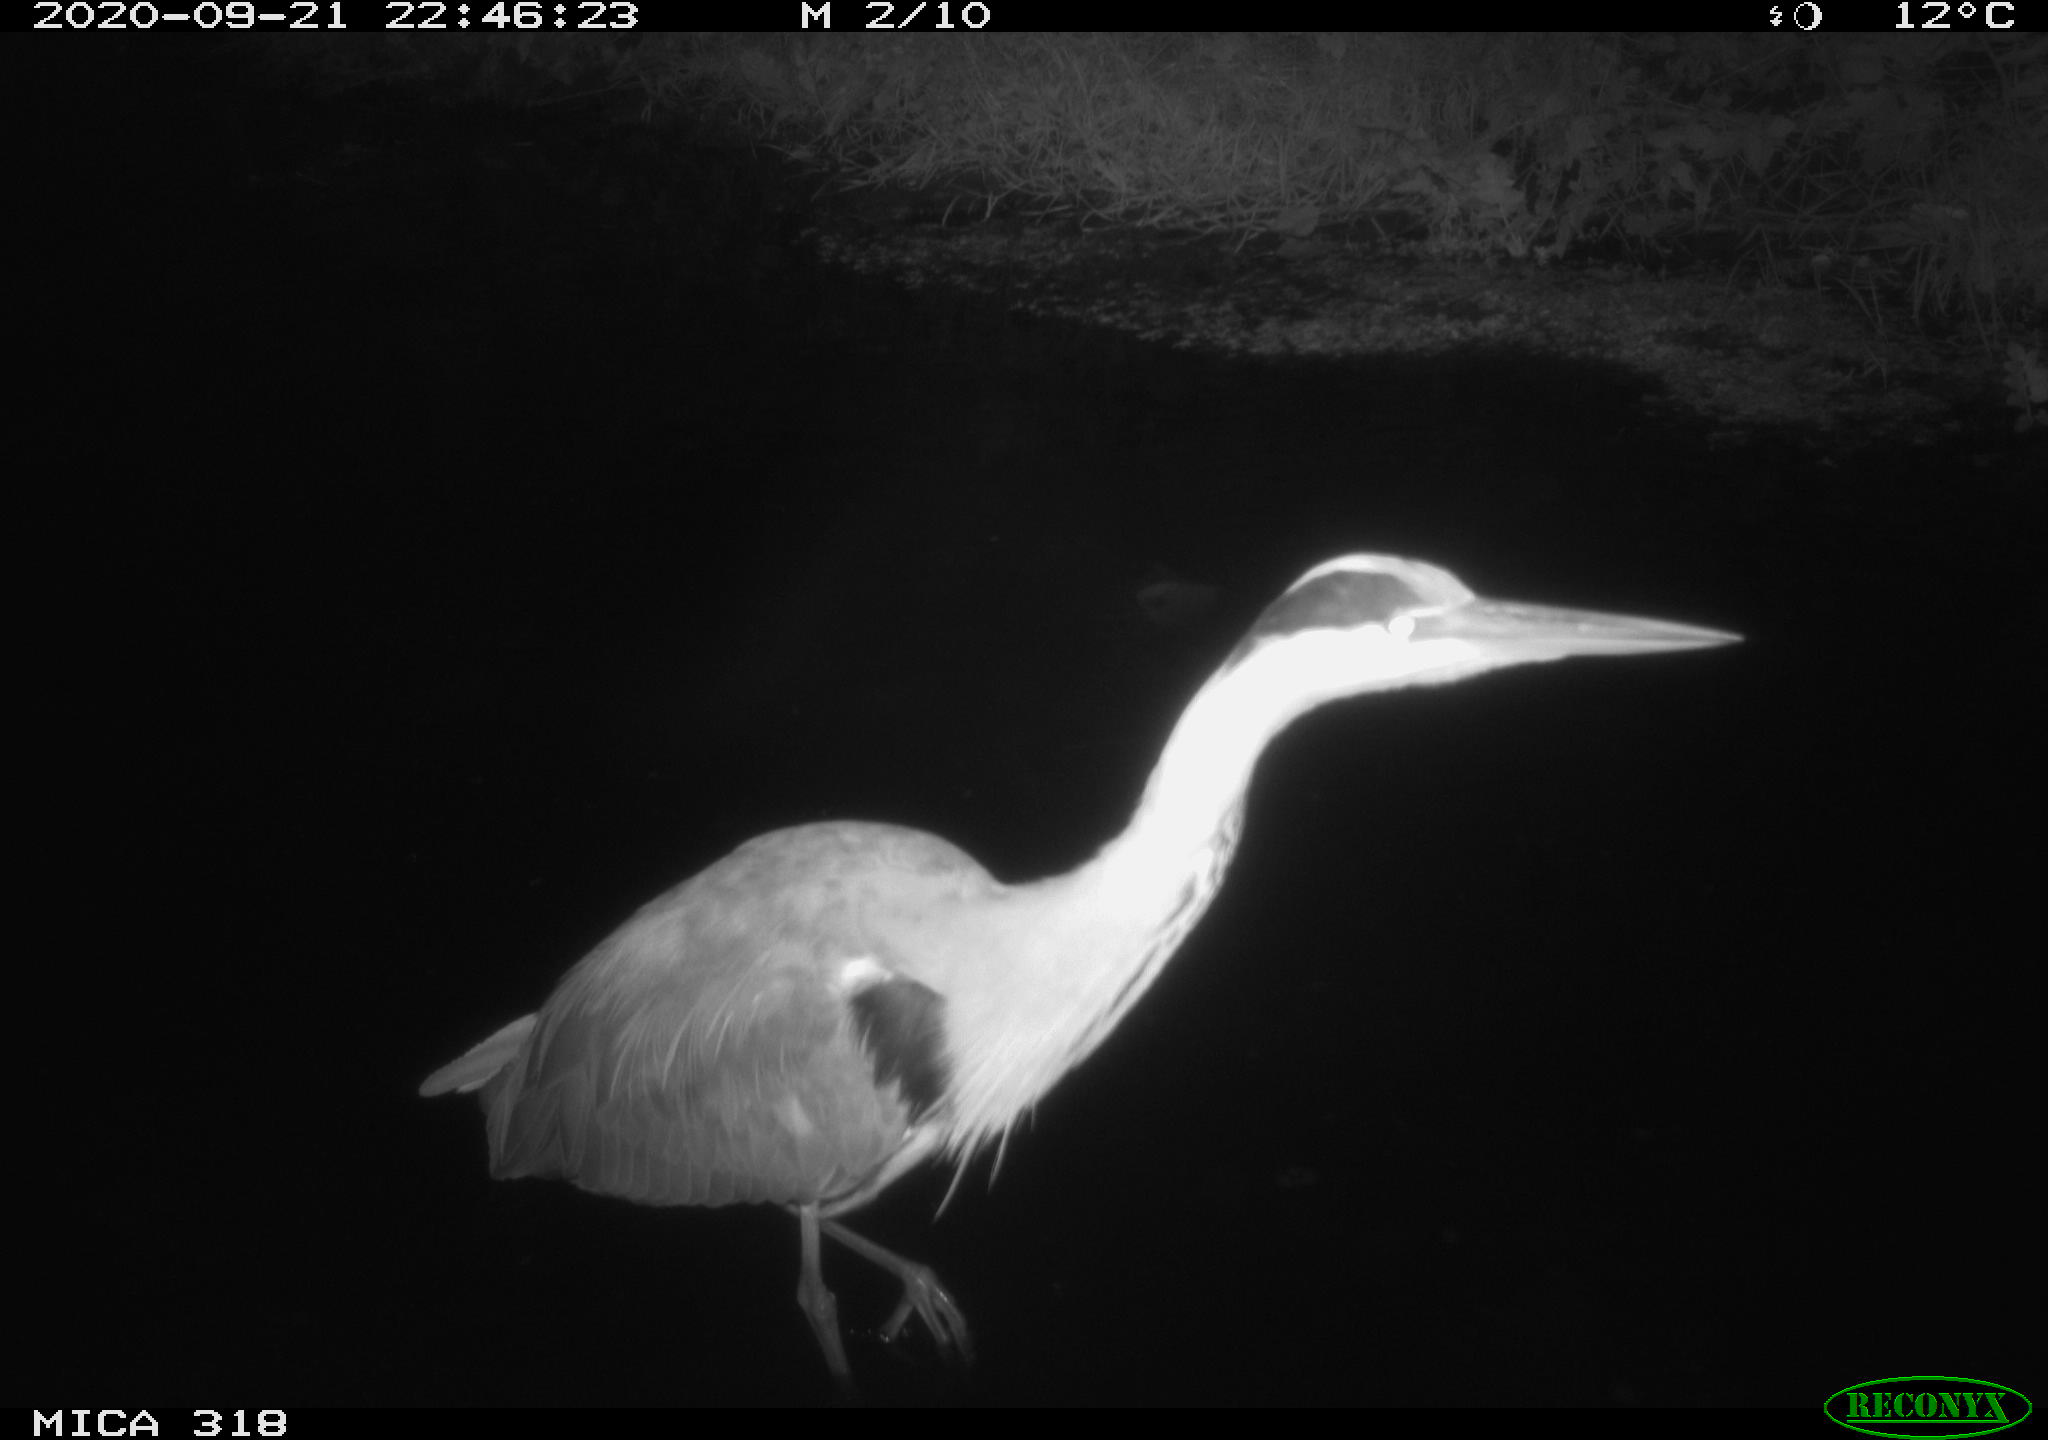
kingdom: Animalia
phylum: Chordata
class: Aves
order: Pelecaniformes
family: Ardeidae
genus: Ardea
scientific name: Ardea
